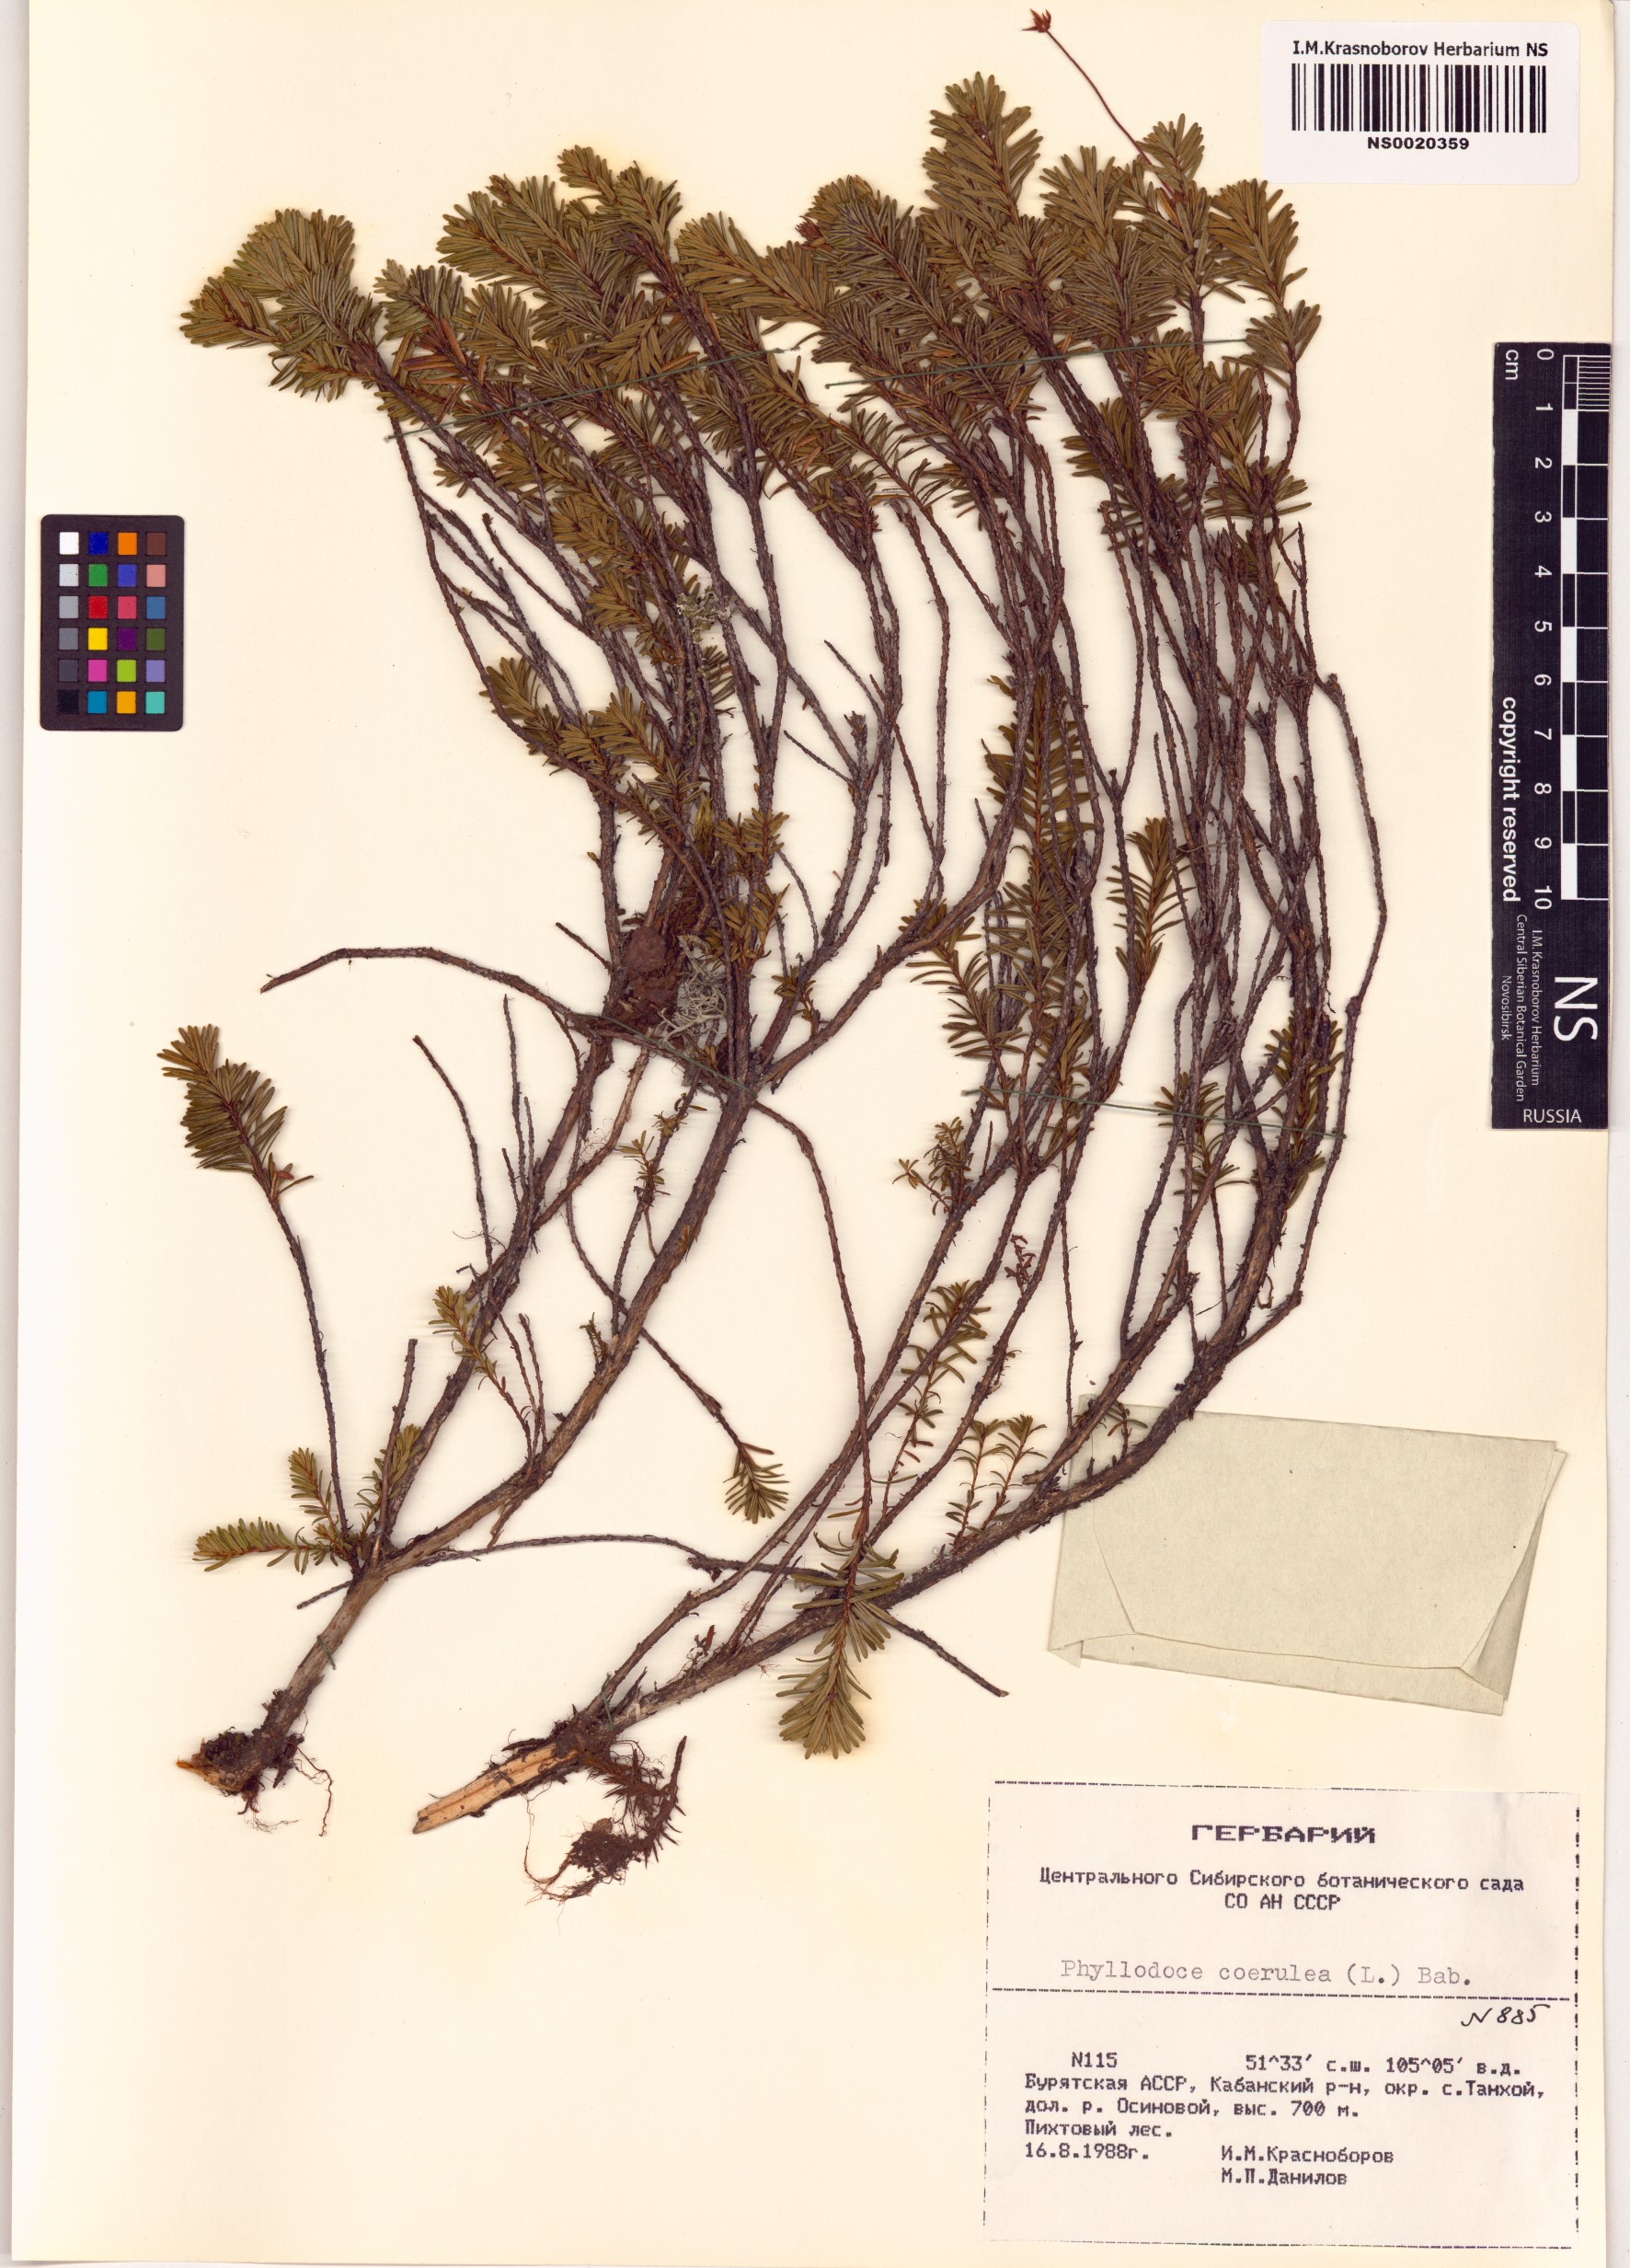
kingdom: Plantae
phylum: Tracheophyta
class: Magnoliopsida
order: Ericales
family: Ericaceae
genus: Phyllodoce
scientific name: Phyllodoce caerulea
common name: Blue heath
